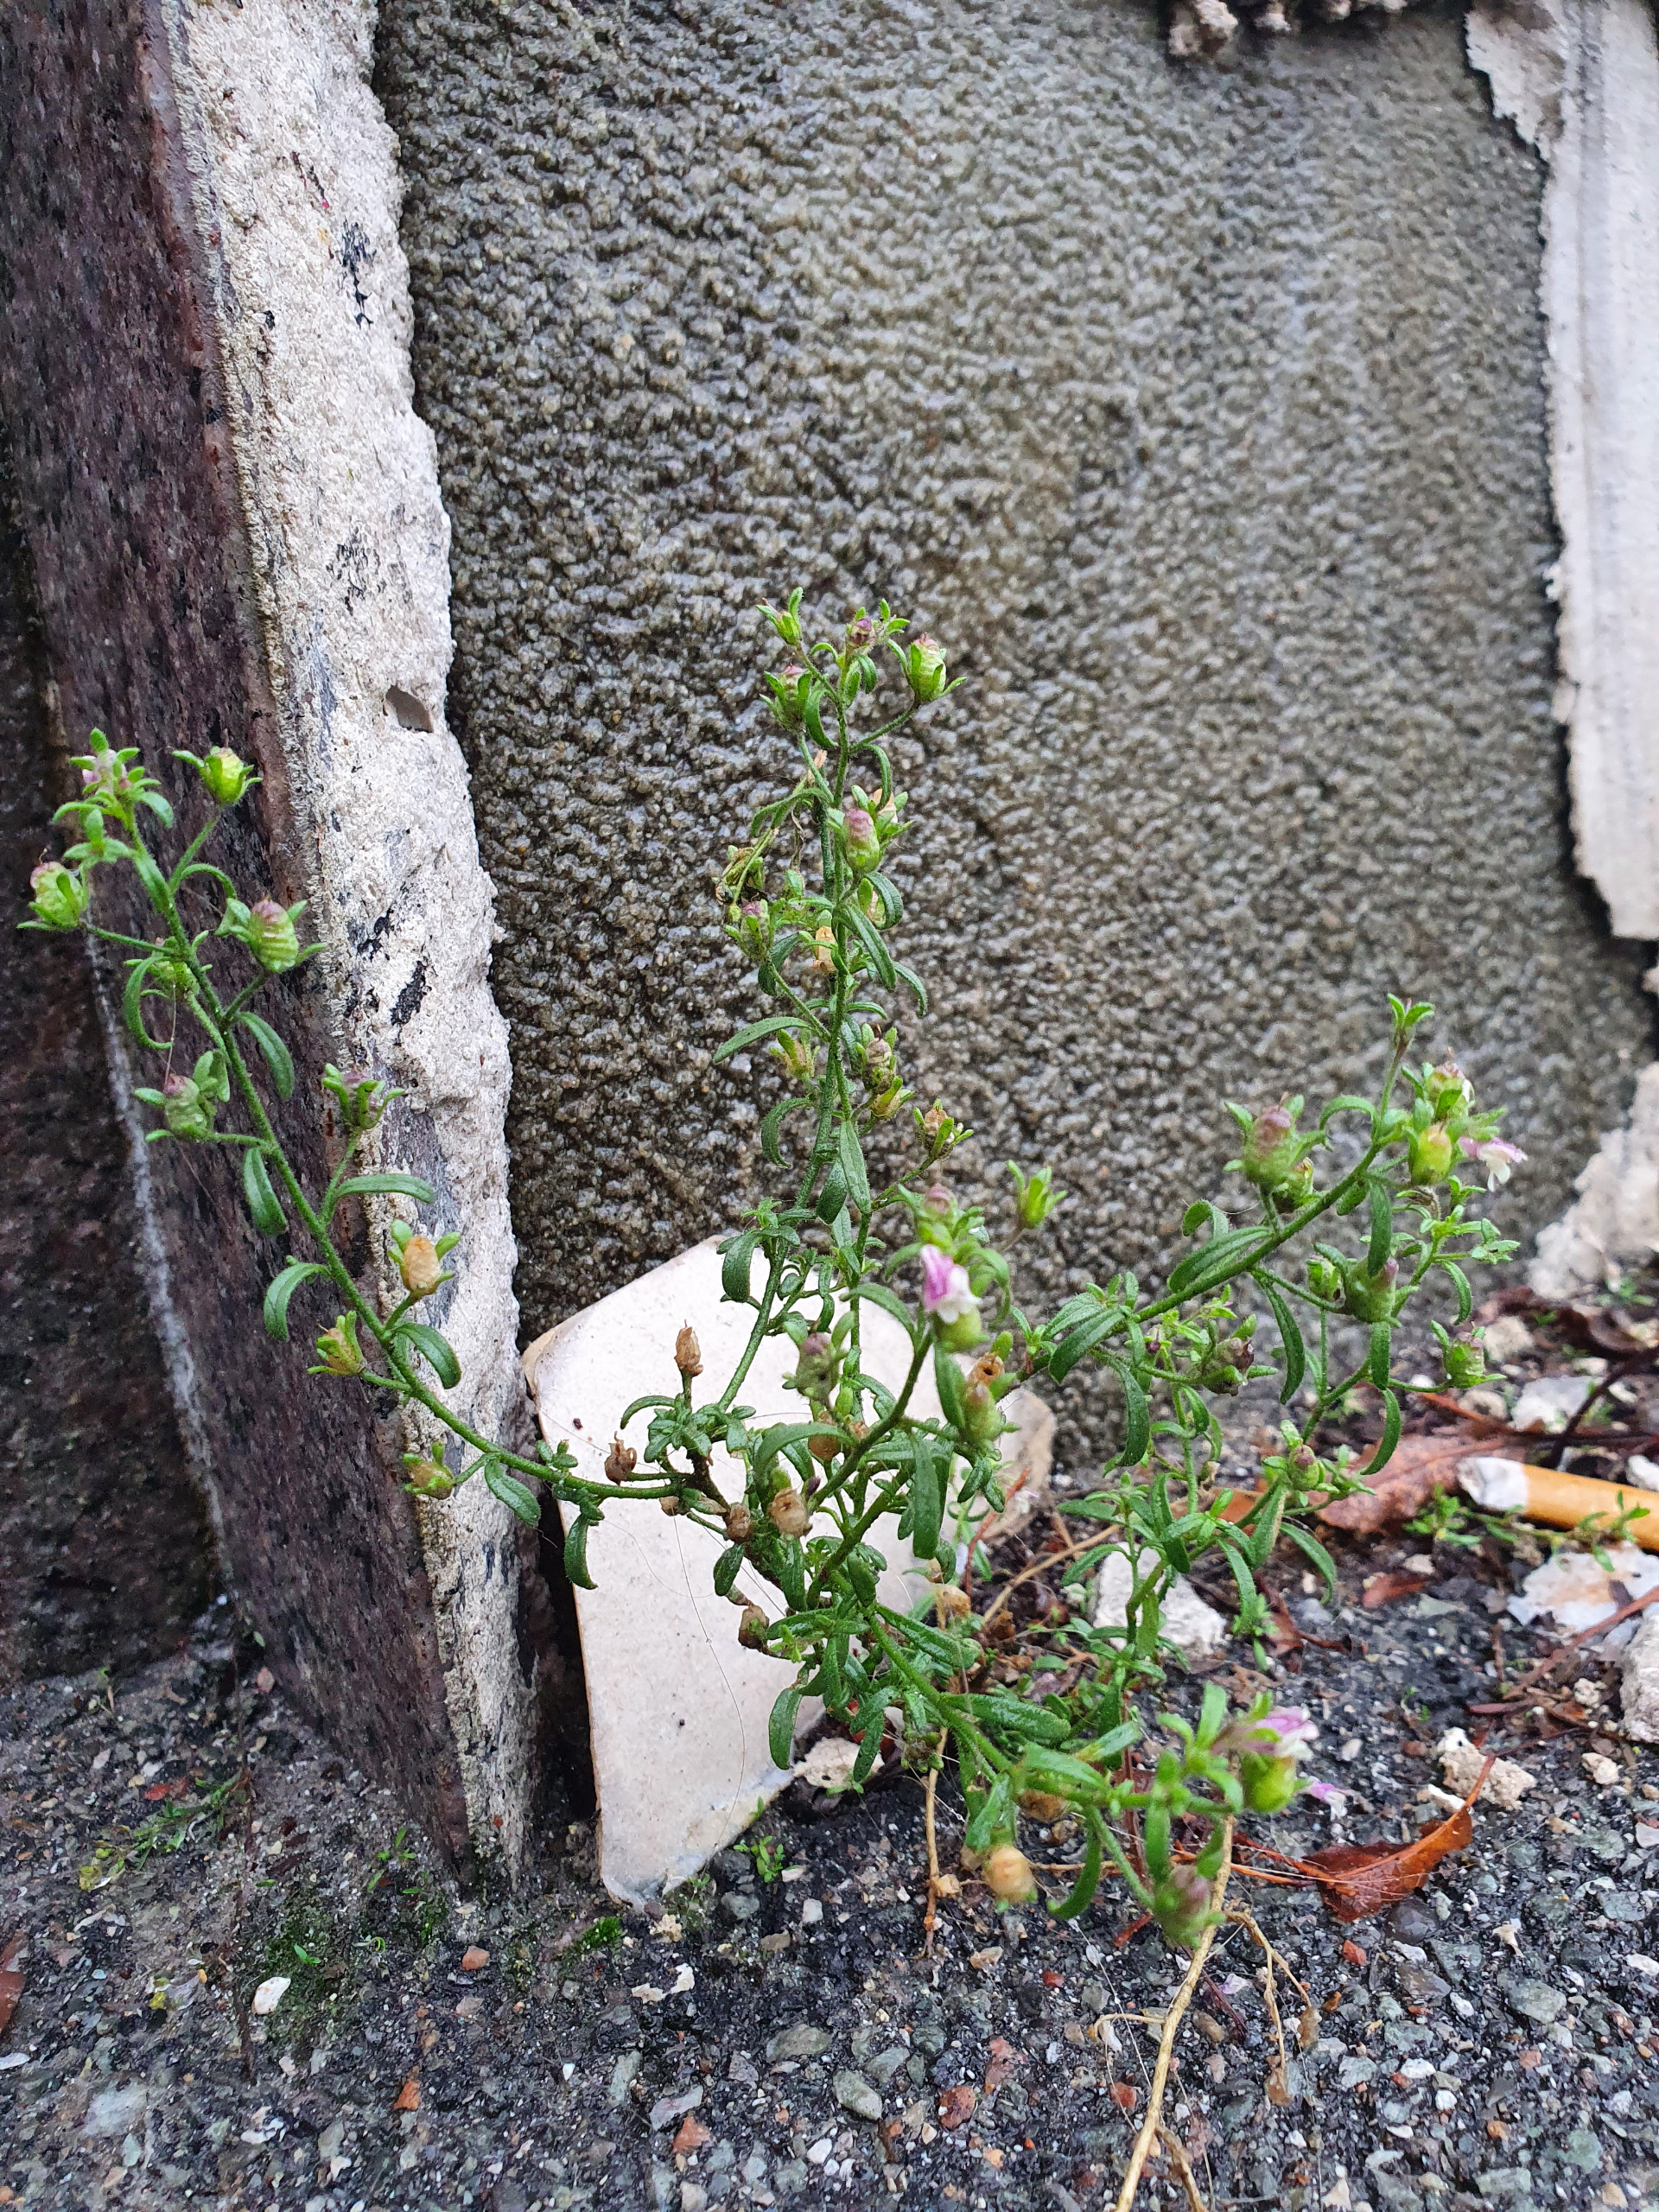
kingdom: Plantae
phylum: Tracheophyta
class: Magnoliopsida
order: Lamiales
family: Plantaginaceae
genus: Chaenorhinum
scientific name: Chaenorhinum minus
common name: Liden torskemund
